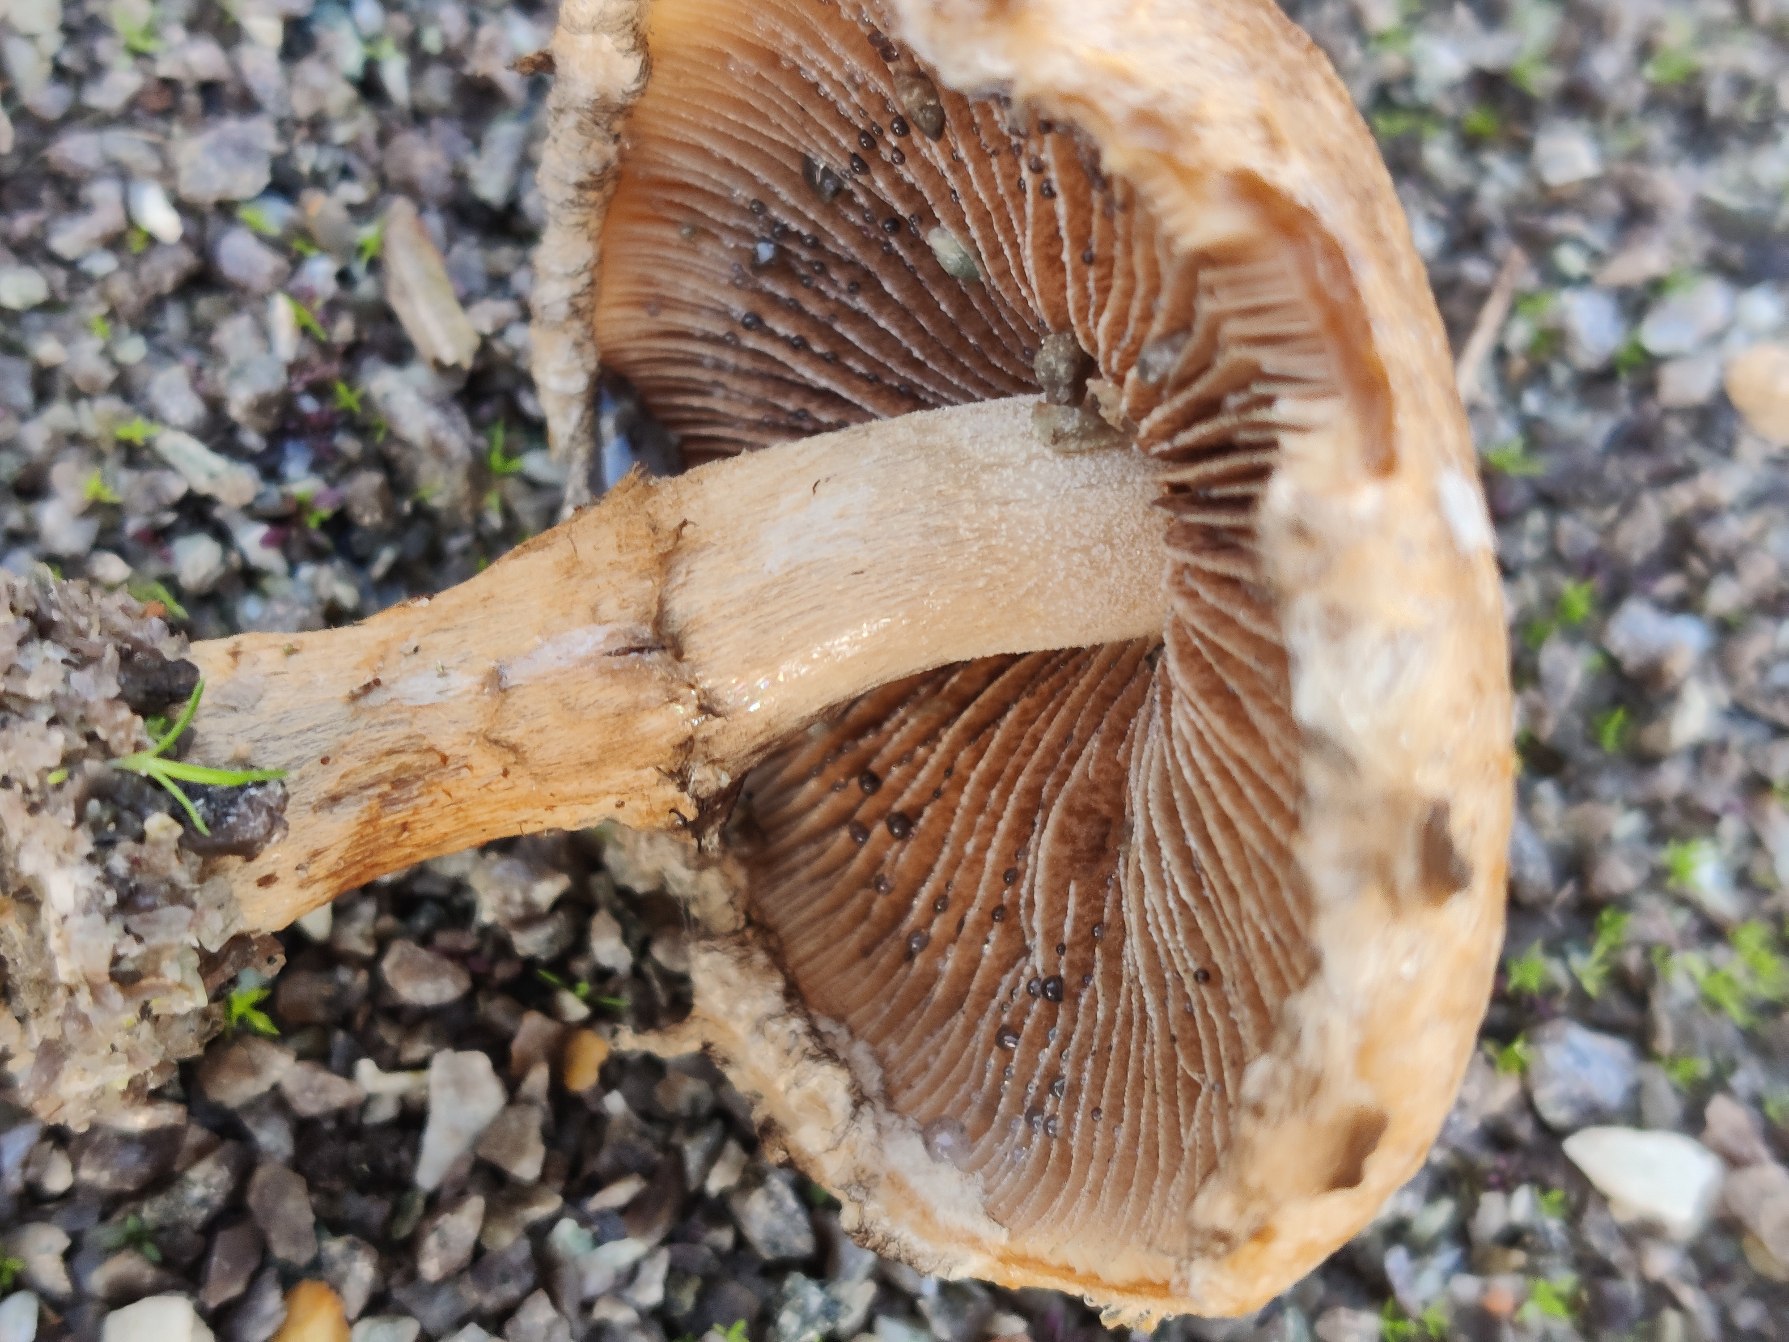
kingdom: Fungi
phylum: Basidiomycota
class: Agaricomycetes
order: Agaricales
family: Psathyrellaceae
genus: Lacrymaria
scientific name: Lacrymaria lacrymabunda
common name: Grædende mørkhat
